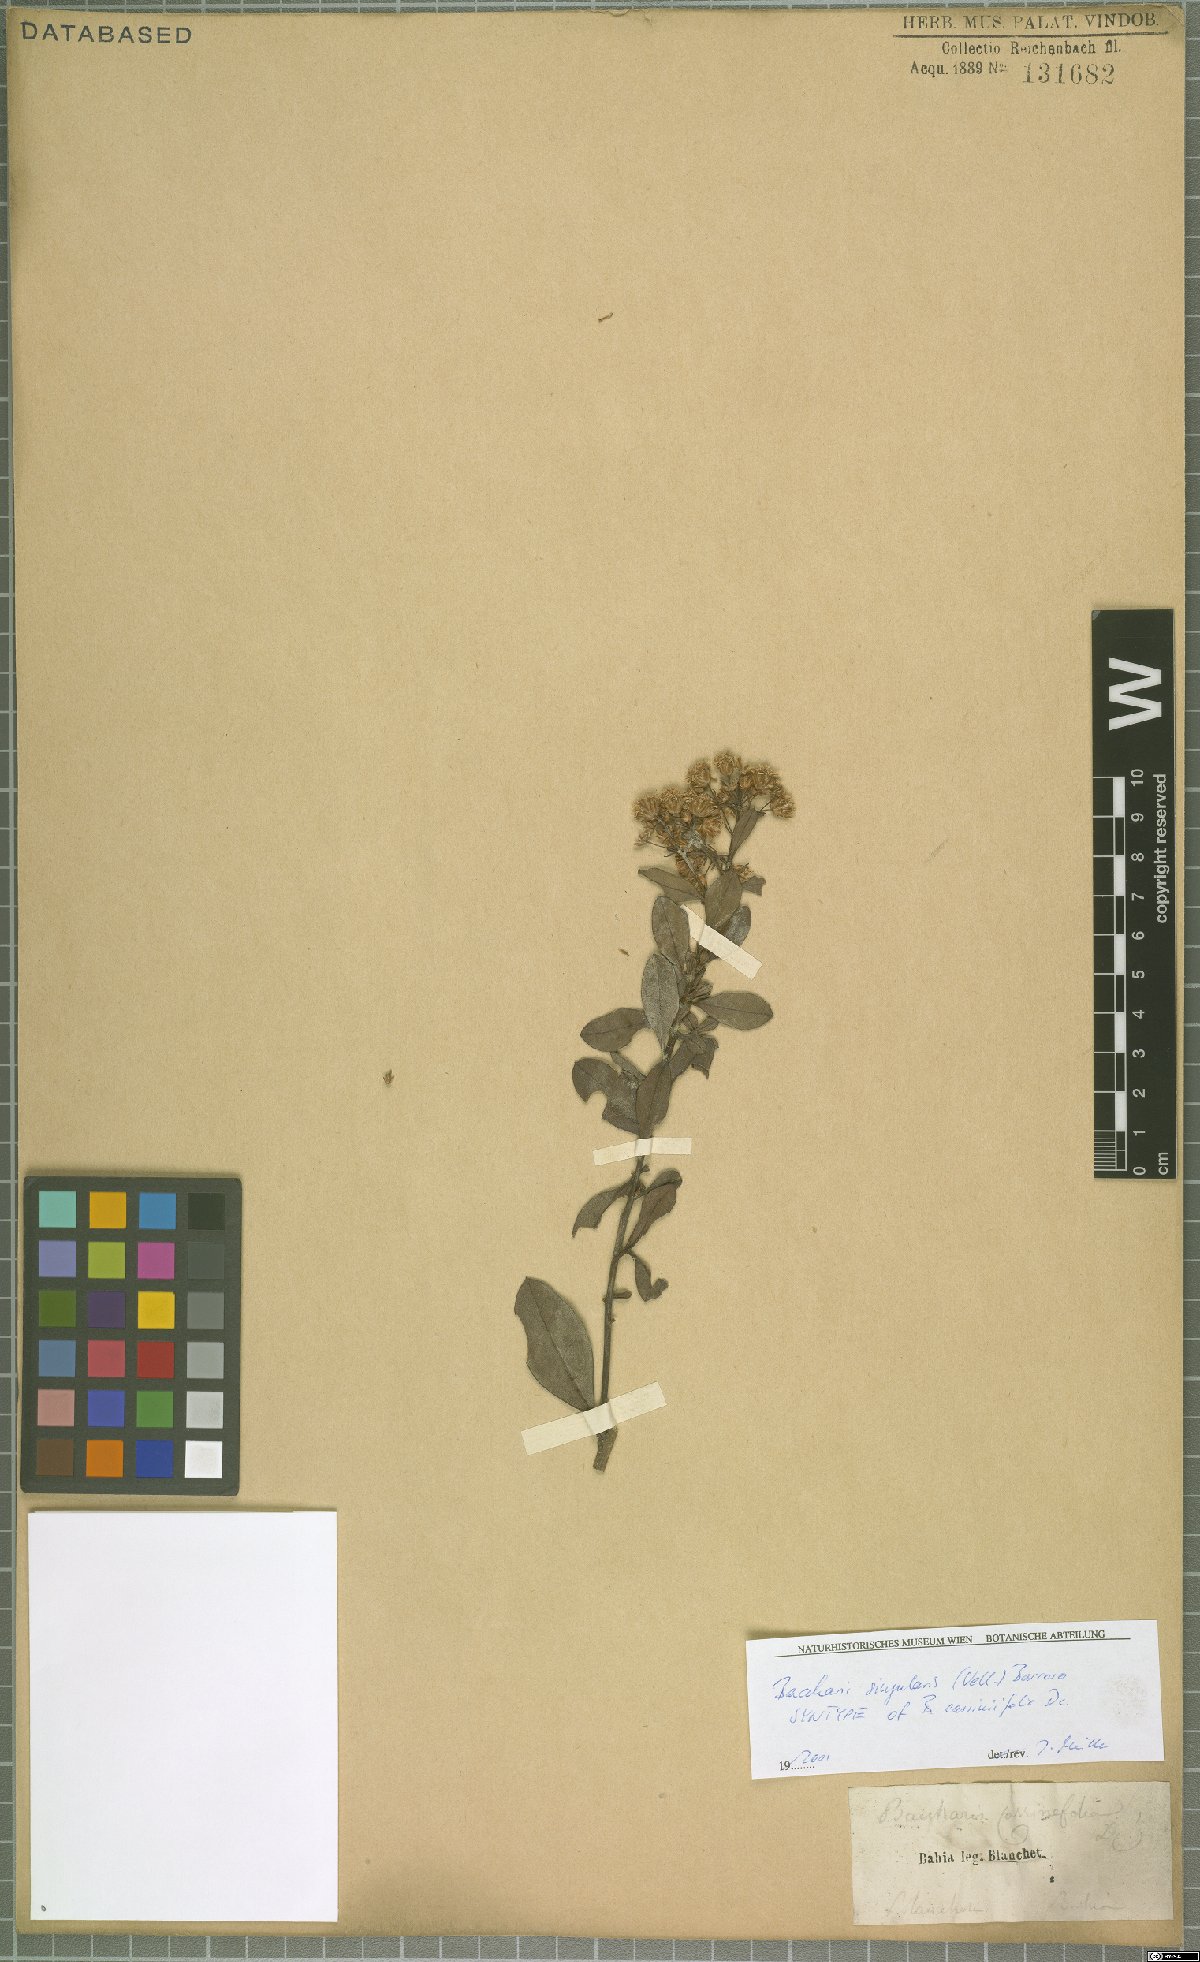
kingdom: Plantae
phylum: Tracheophyta
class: Magnoliopsida
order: Asterales
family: Asteraceae
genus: Baccharis
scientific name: Baccharis singularis
